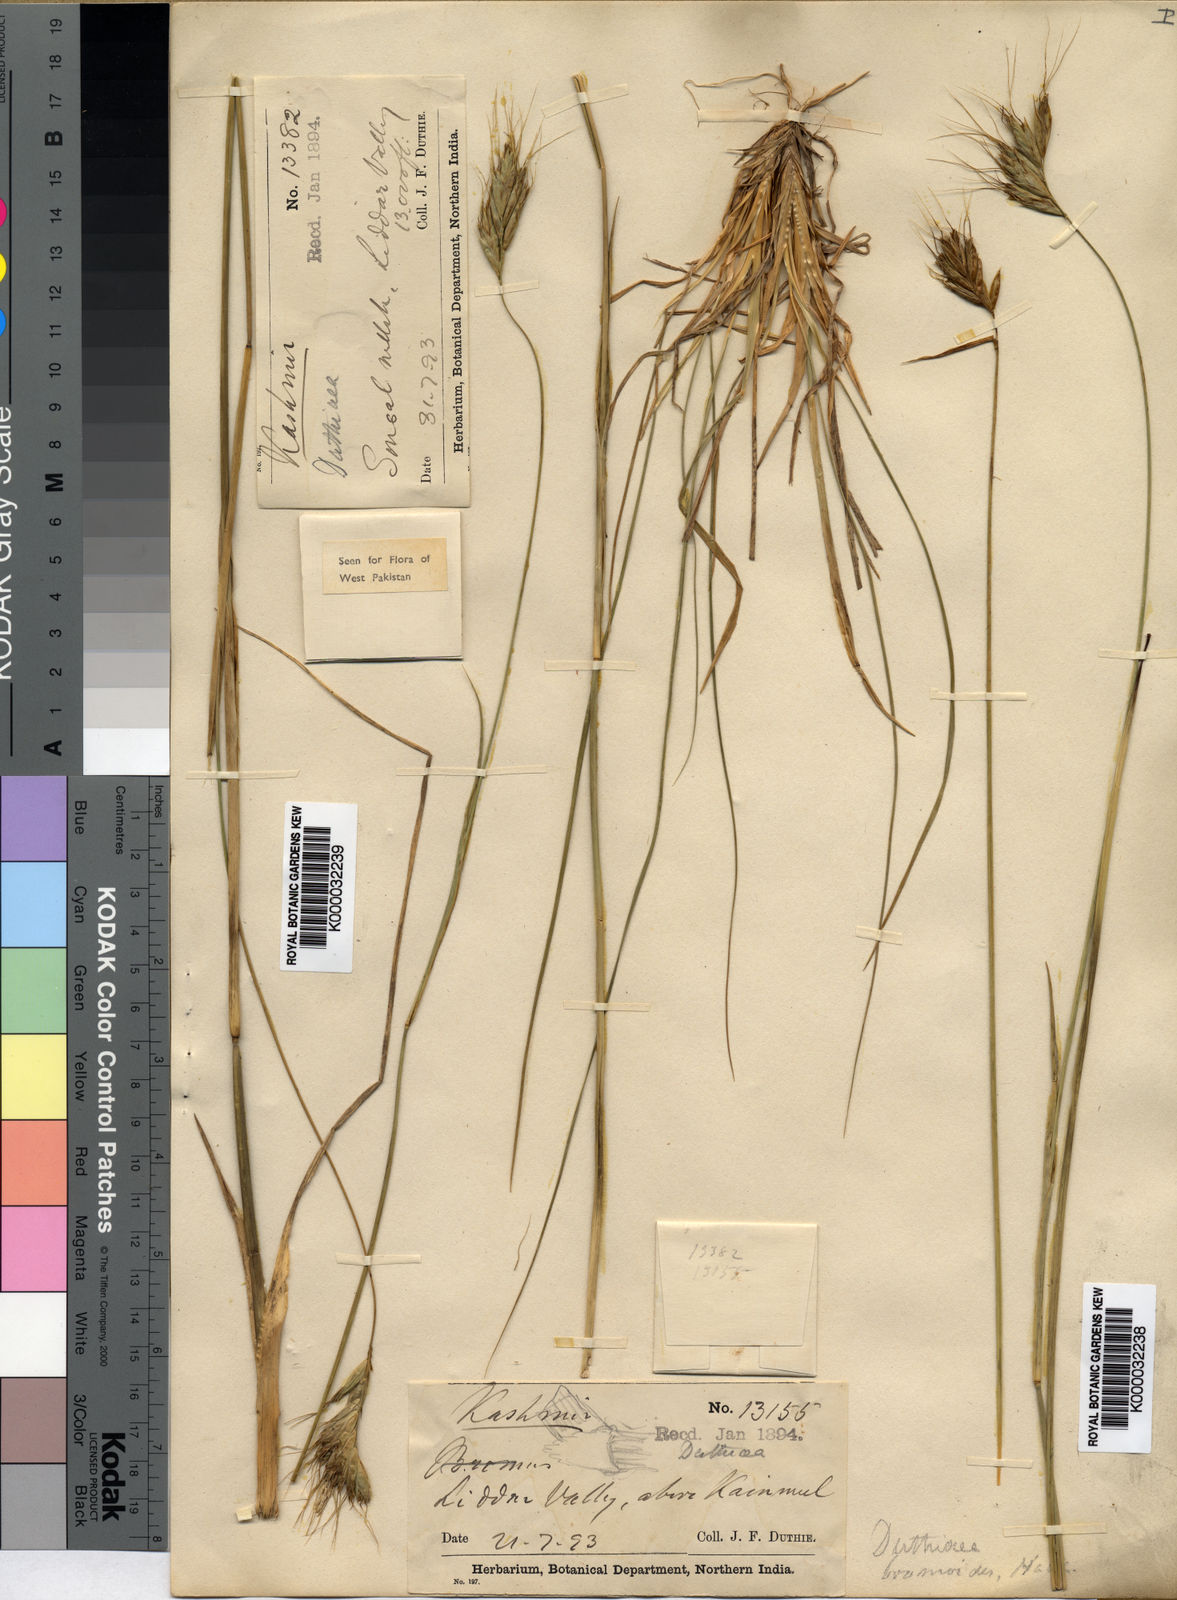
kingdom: Plantae
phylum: Tracheophyta
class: Liliopsida
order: Poales
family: Poaceae
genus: Duthiea
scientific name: Duthiea bromoides
